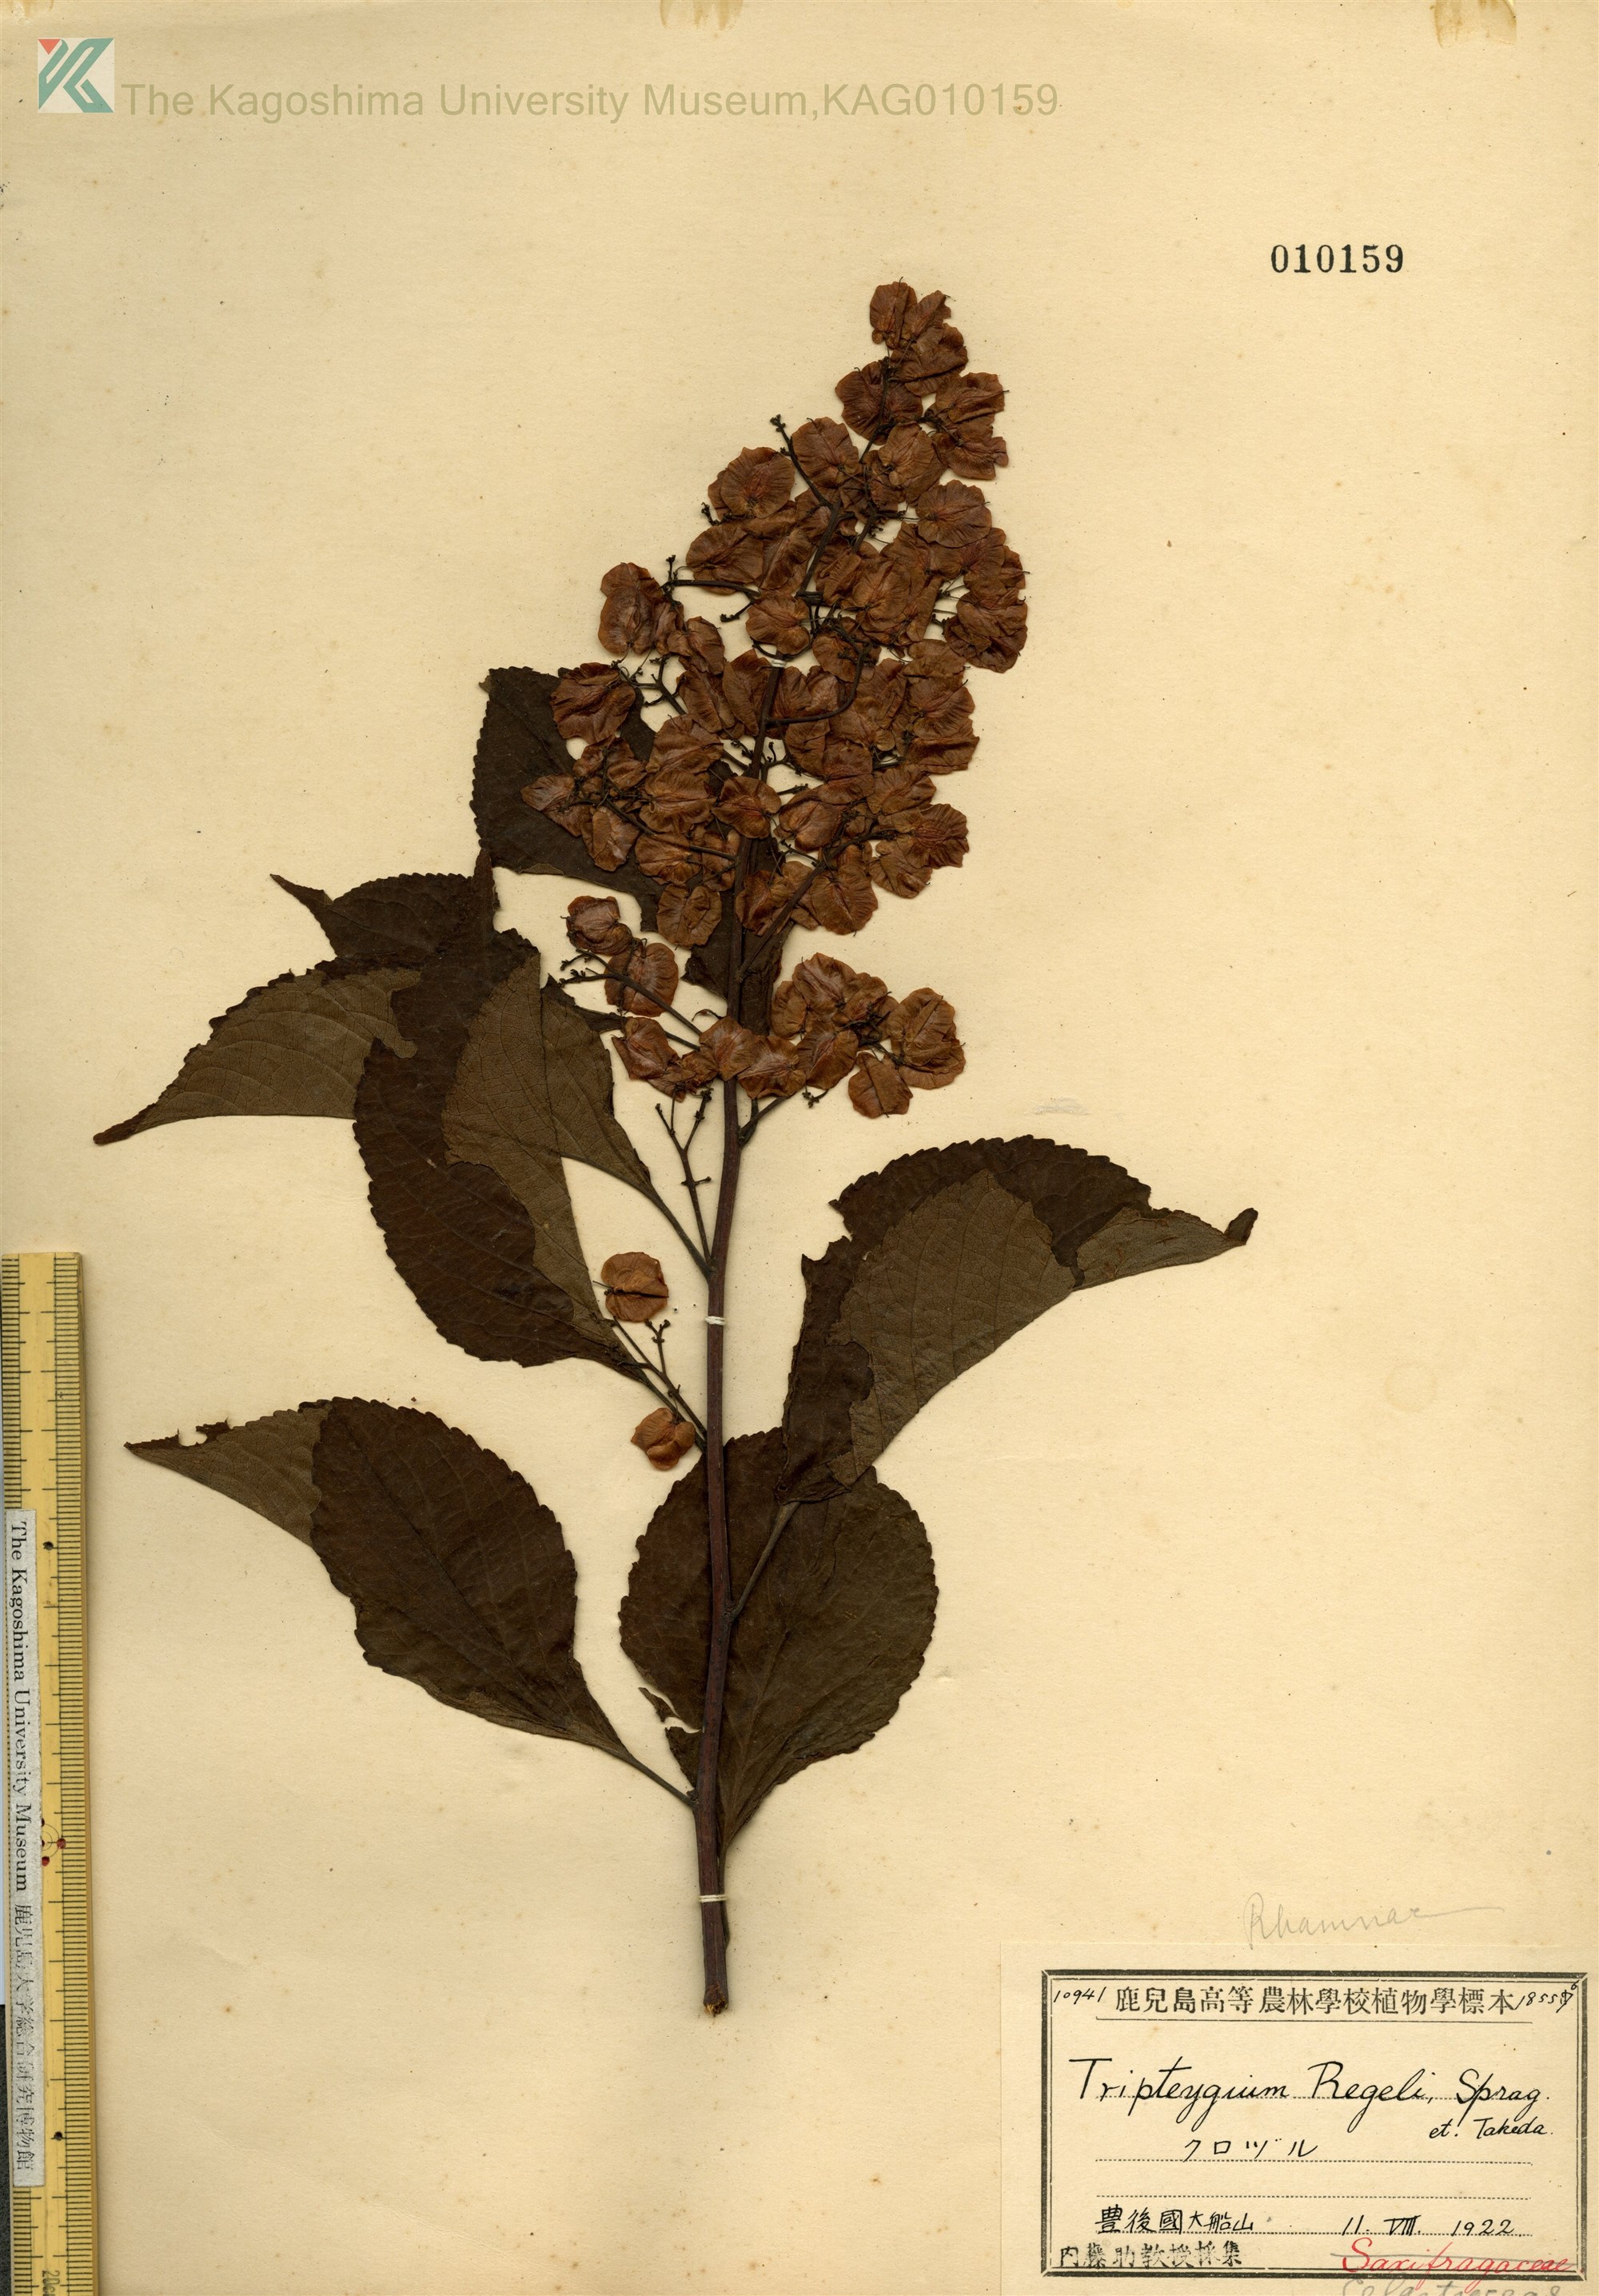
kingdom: Plantae
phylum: Tracheophyta
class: Magnoliopsida
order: Celastrales
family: Celastraceae
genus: Tripterygium
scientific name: Tripterygium wilfordii
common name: クロヅル
